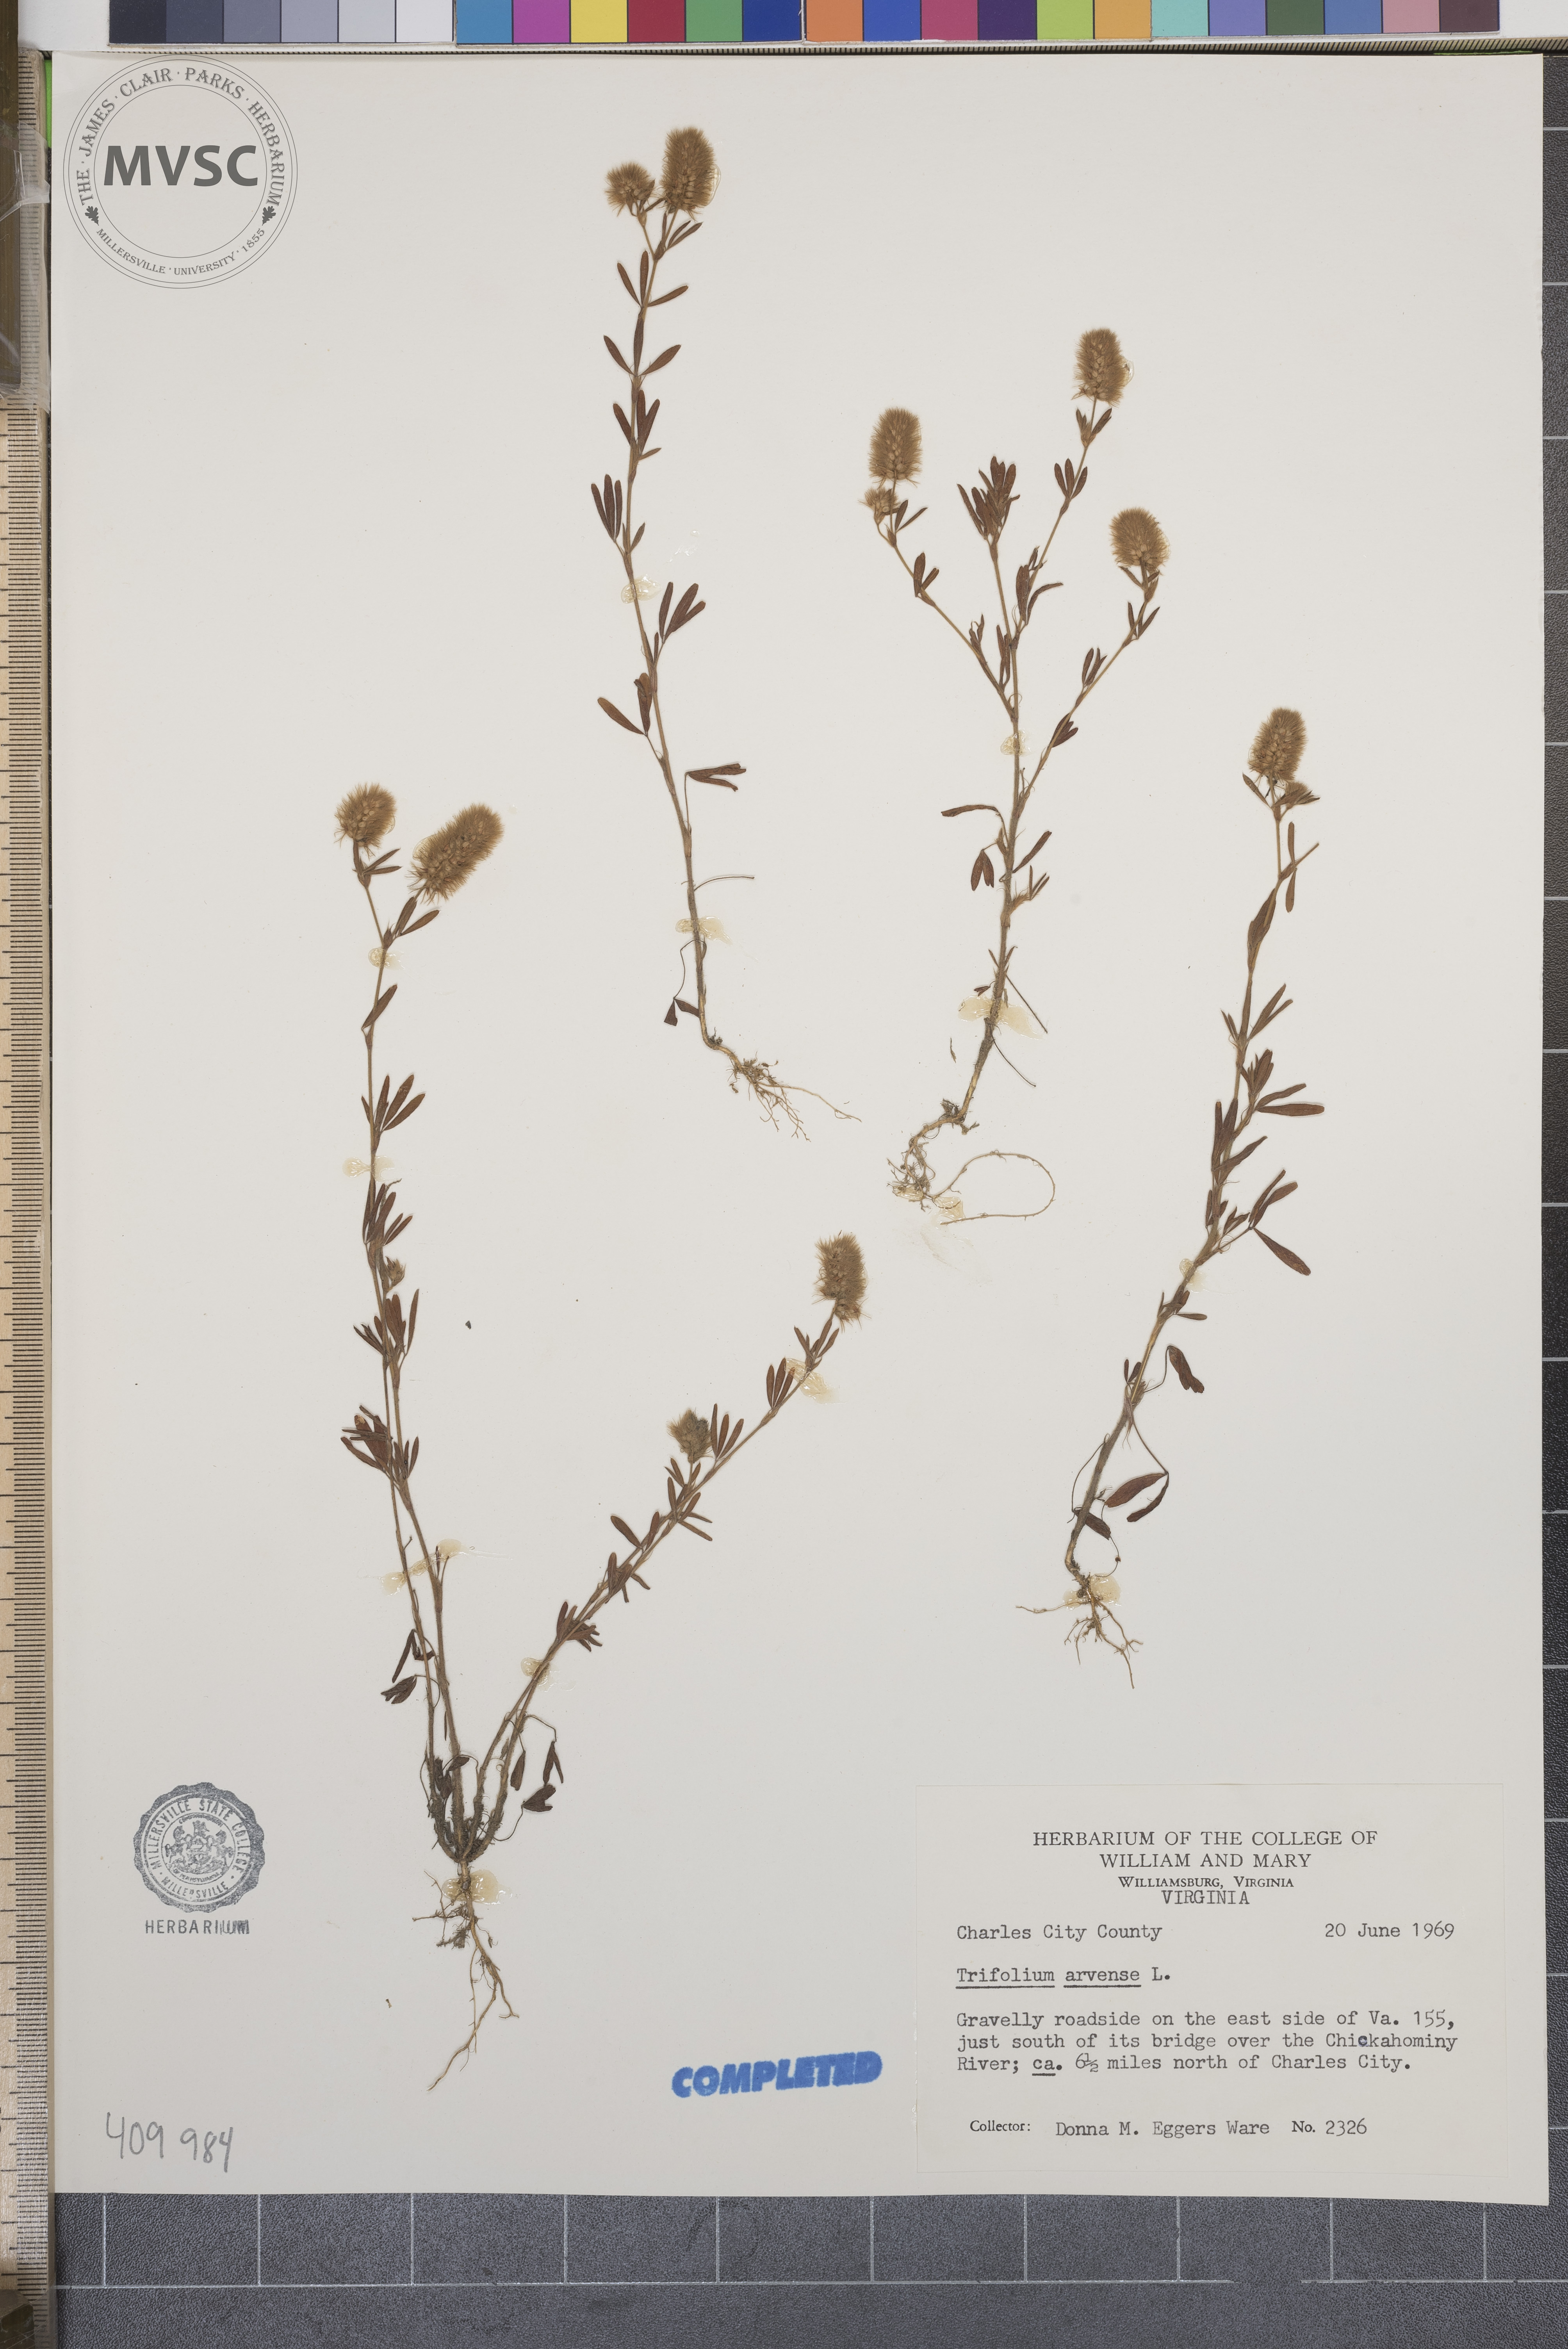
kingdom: Plantae
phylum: Tracheophyta
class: Magnoliopsida
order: Fabales
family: Fabaceae
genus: Trifolium
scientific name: Trifolium arvense
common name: Hare's-foot clover
